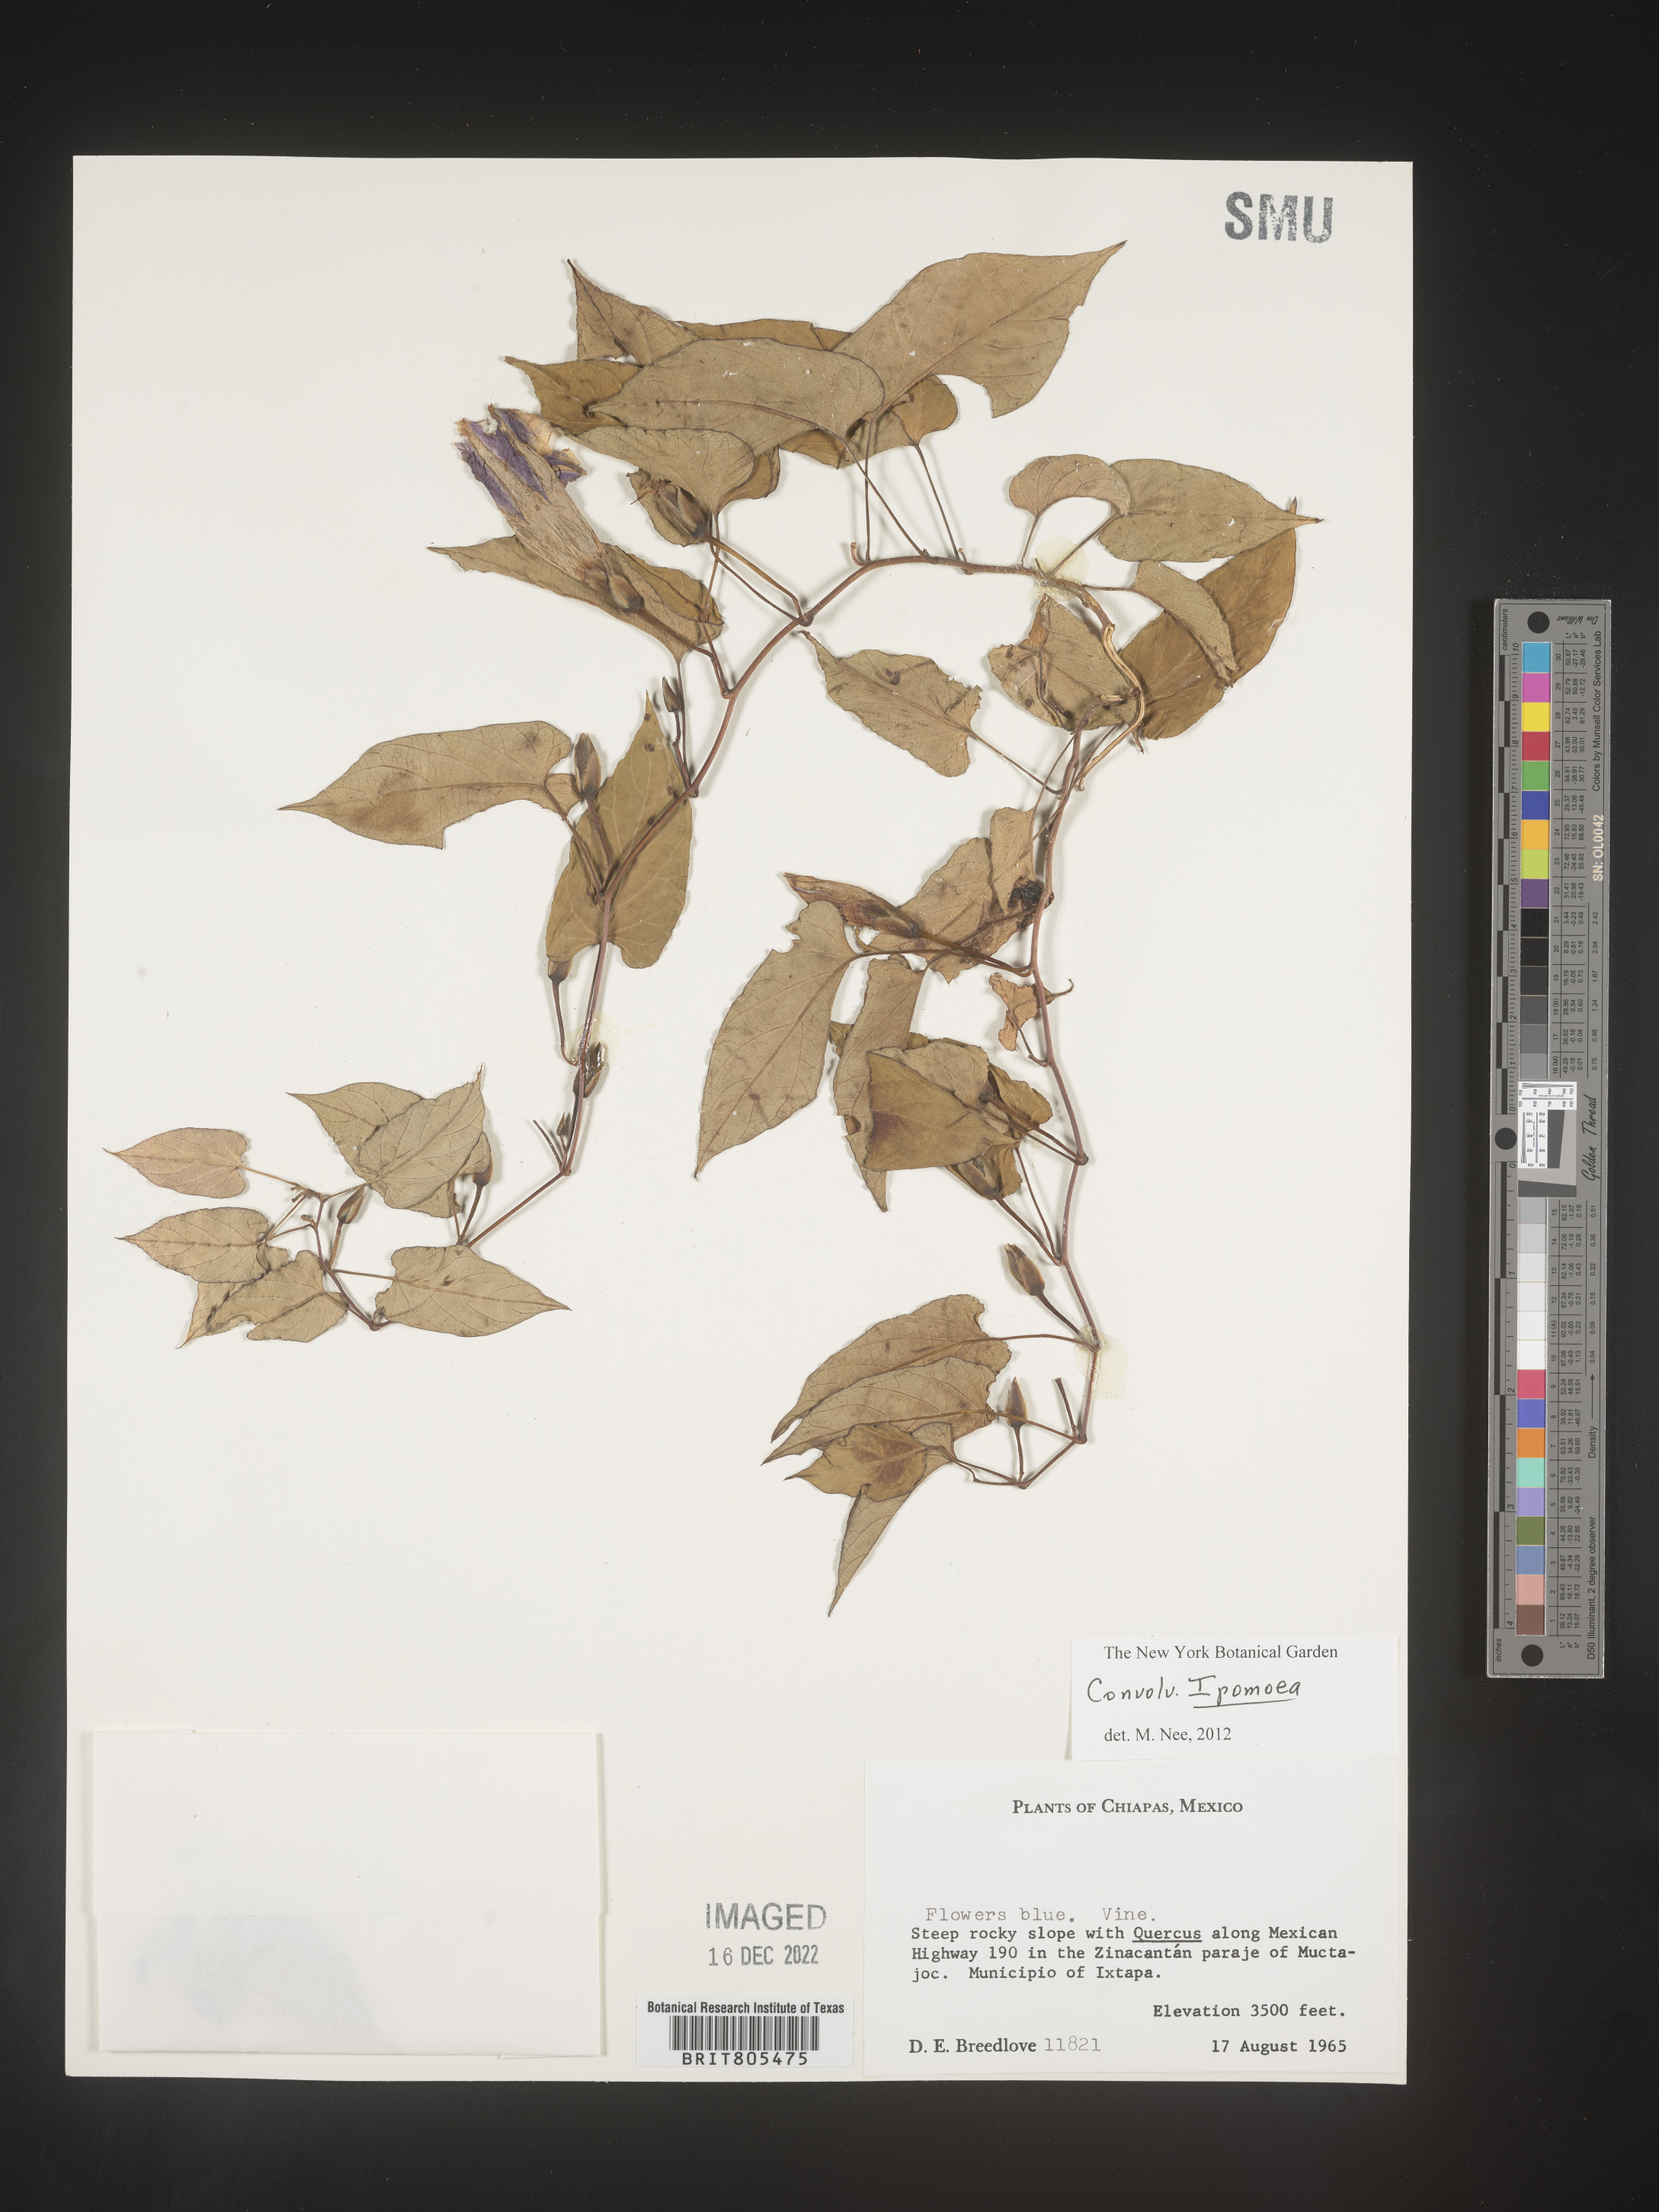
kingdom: Plantae
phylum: Tracheophyta
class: Magnoliopsida
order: Solanales
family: Convolvulaceae
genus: Ipomoea
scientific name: Ipomoea
